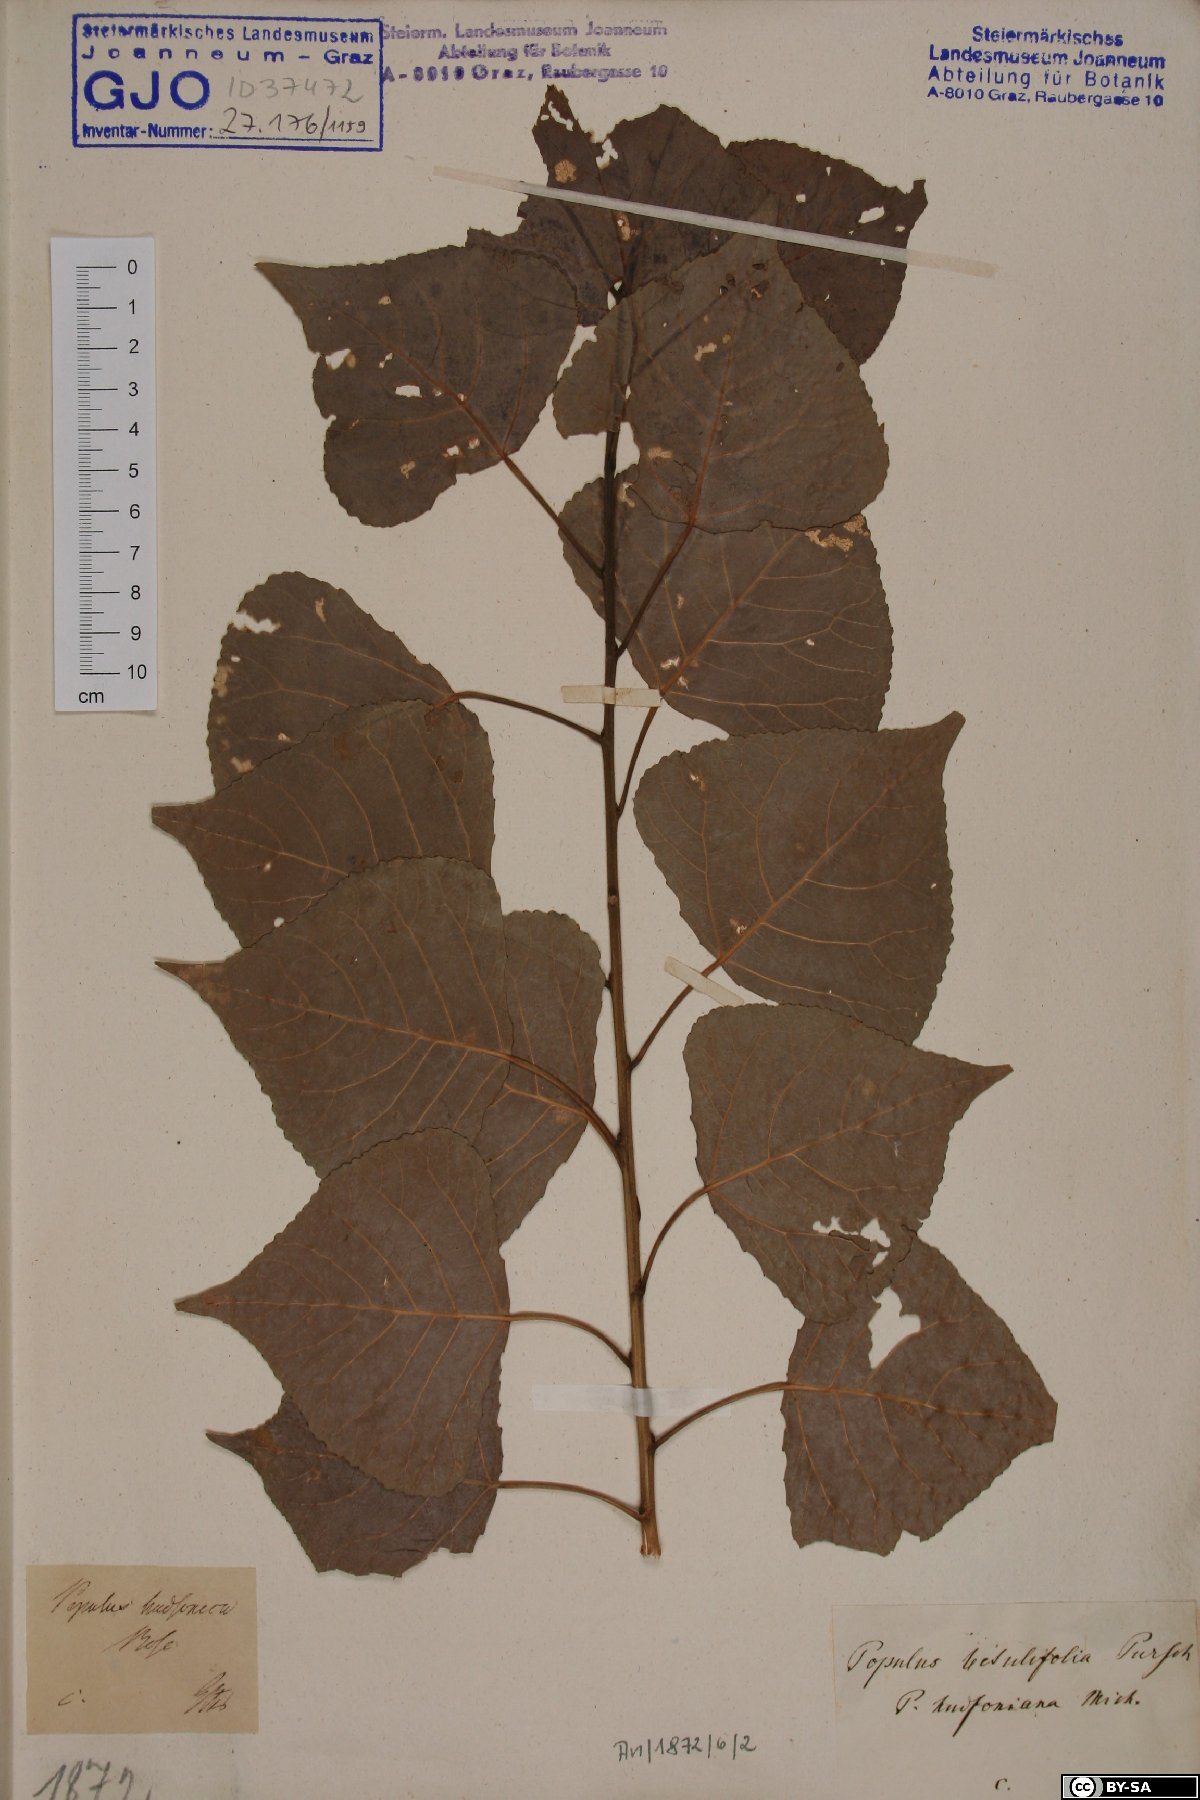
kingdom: Plantae
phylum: Tracheophyta
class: Magnoliopsida
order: Malpighiales
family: Salicaceae
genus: Populus
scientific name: Populus nigra
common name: Black poplar
